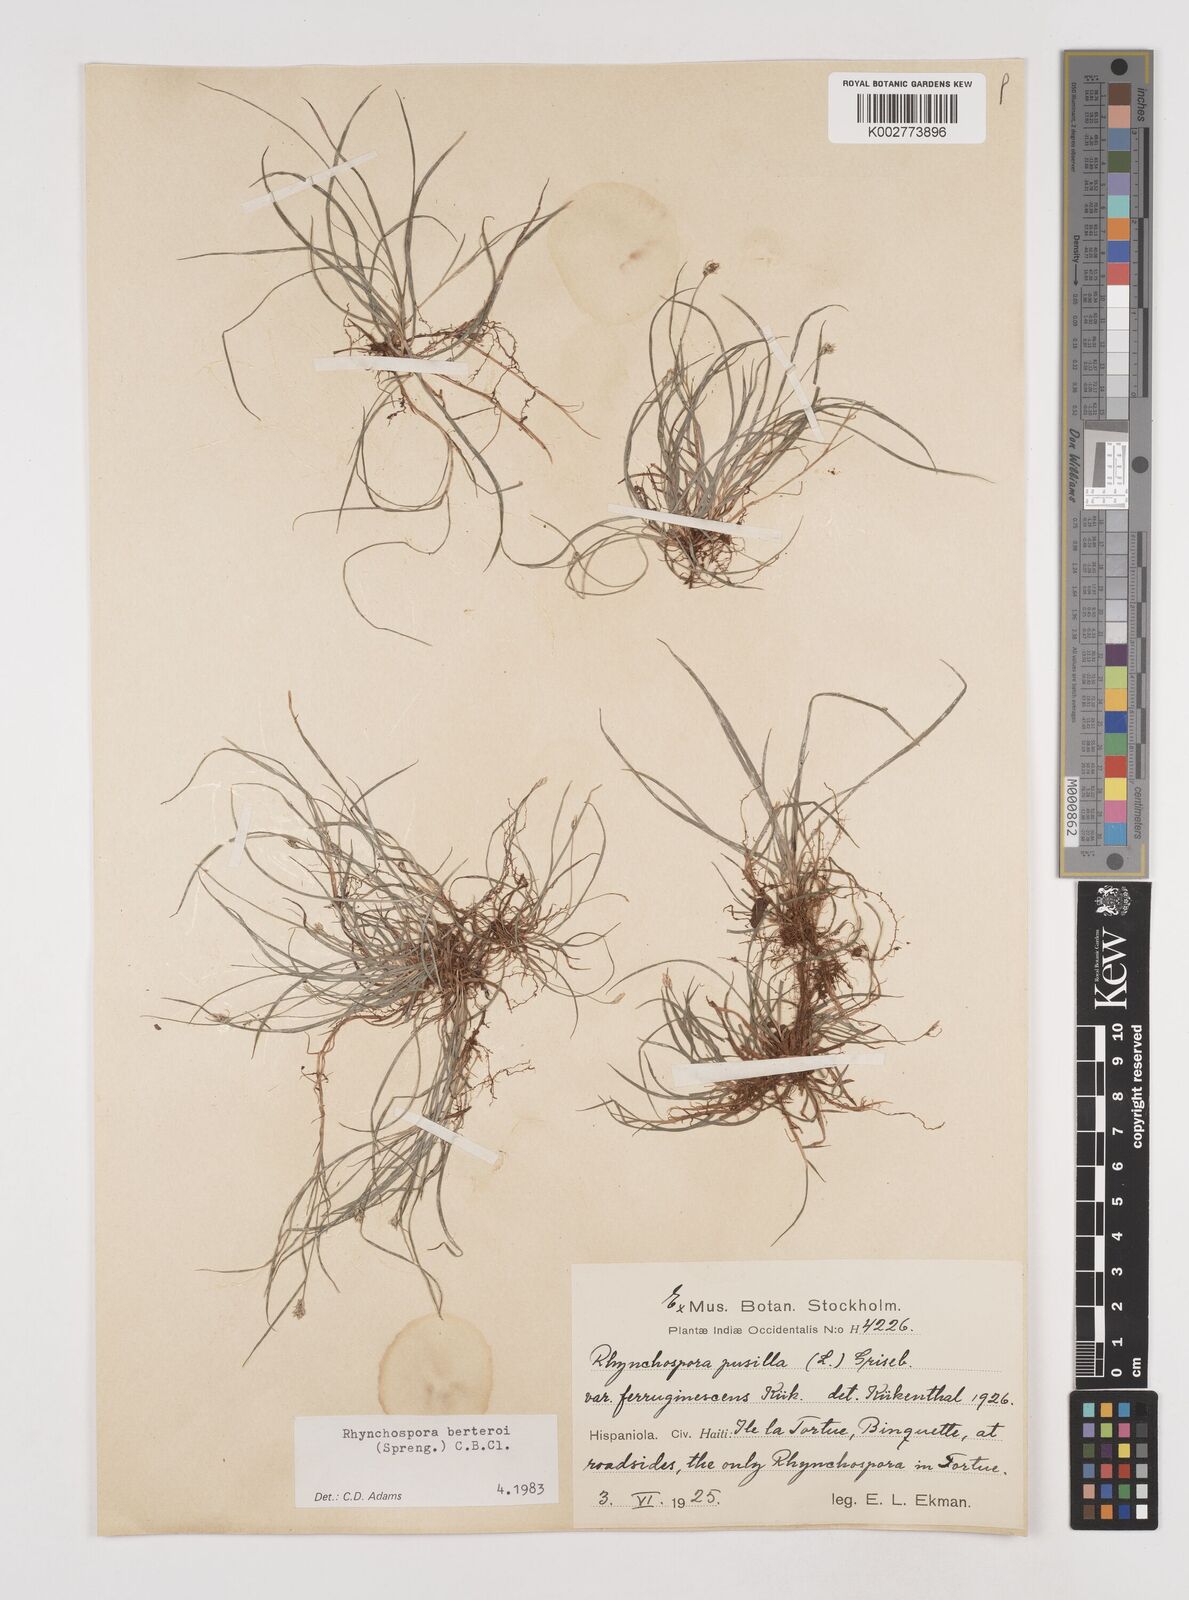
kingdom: Plantae
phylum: Tracheophyta
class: Liliopsida
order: Poales
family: Cyperaceae
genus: Rhynchospora
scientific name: Rhynchospora berteroi
